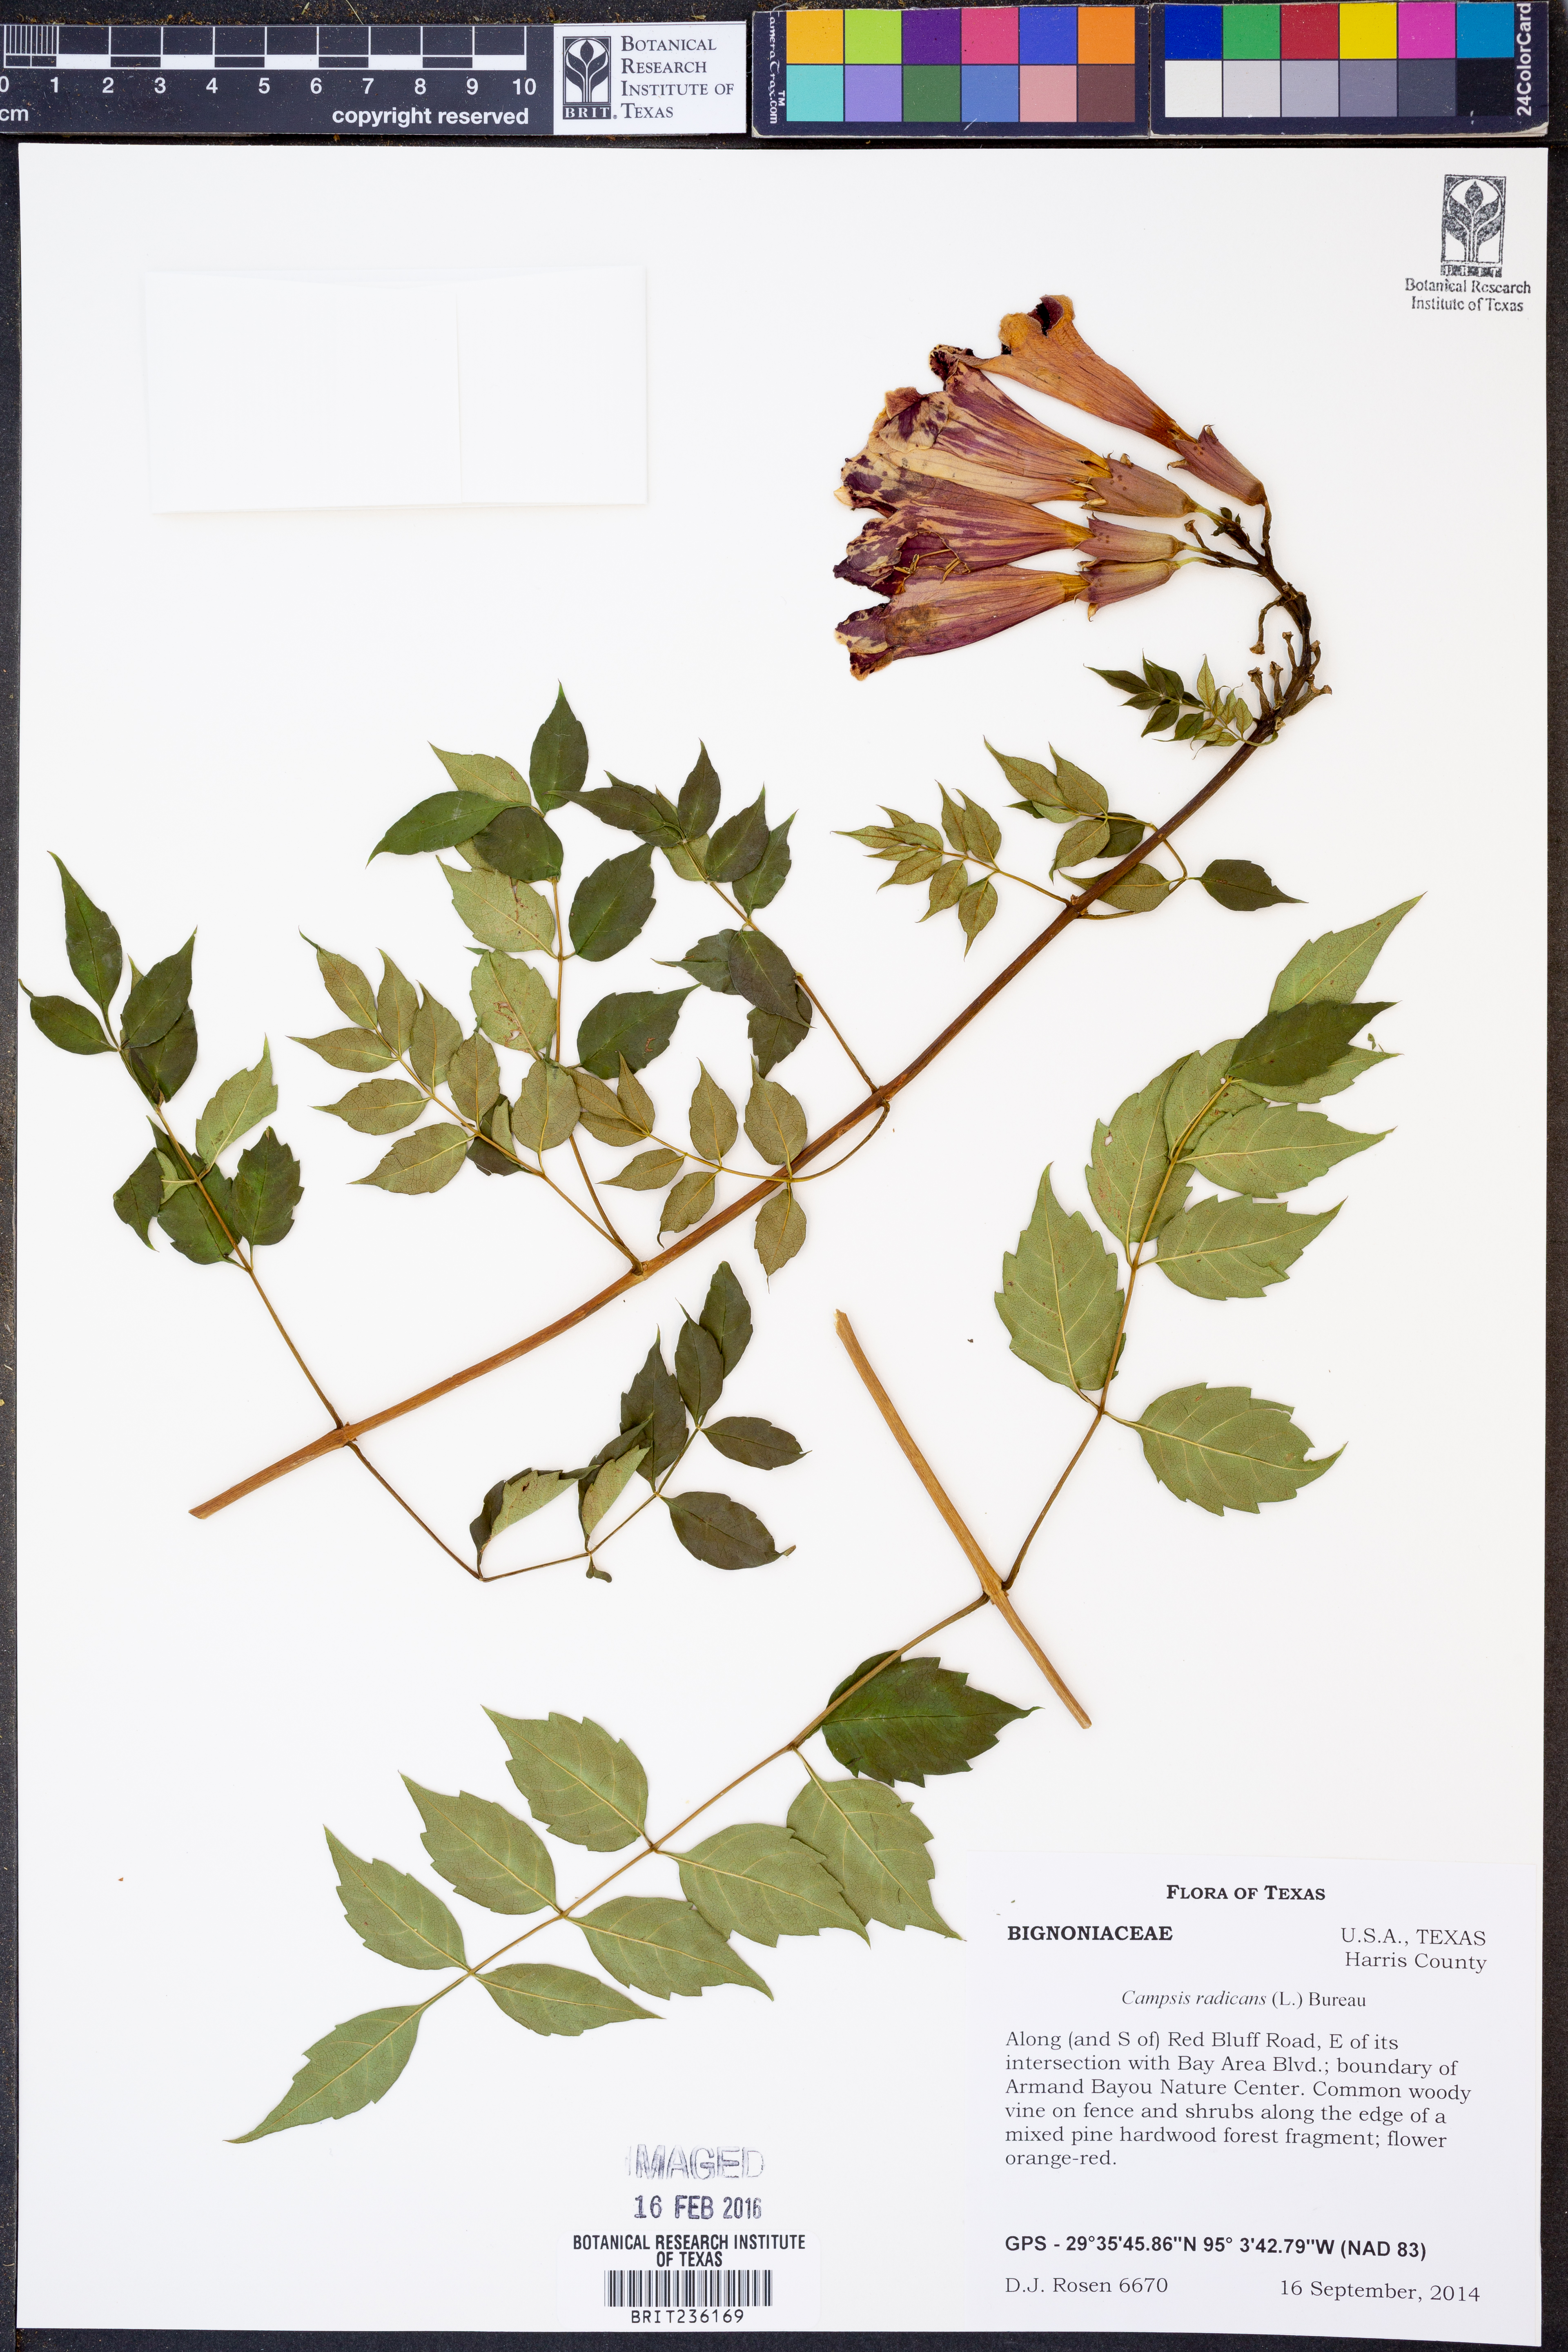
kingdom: Plantae
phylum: Tracheophyta
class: Magnoliopsida
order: Lamiales
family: Bignoniaceae
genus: Campsis
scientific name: Campsis radicans
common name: Trumpet-creeper
